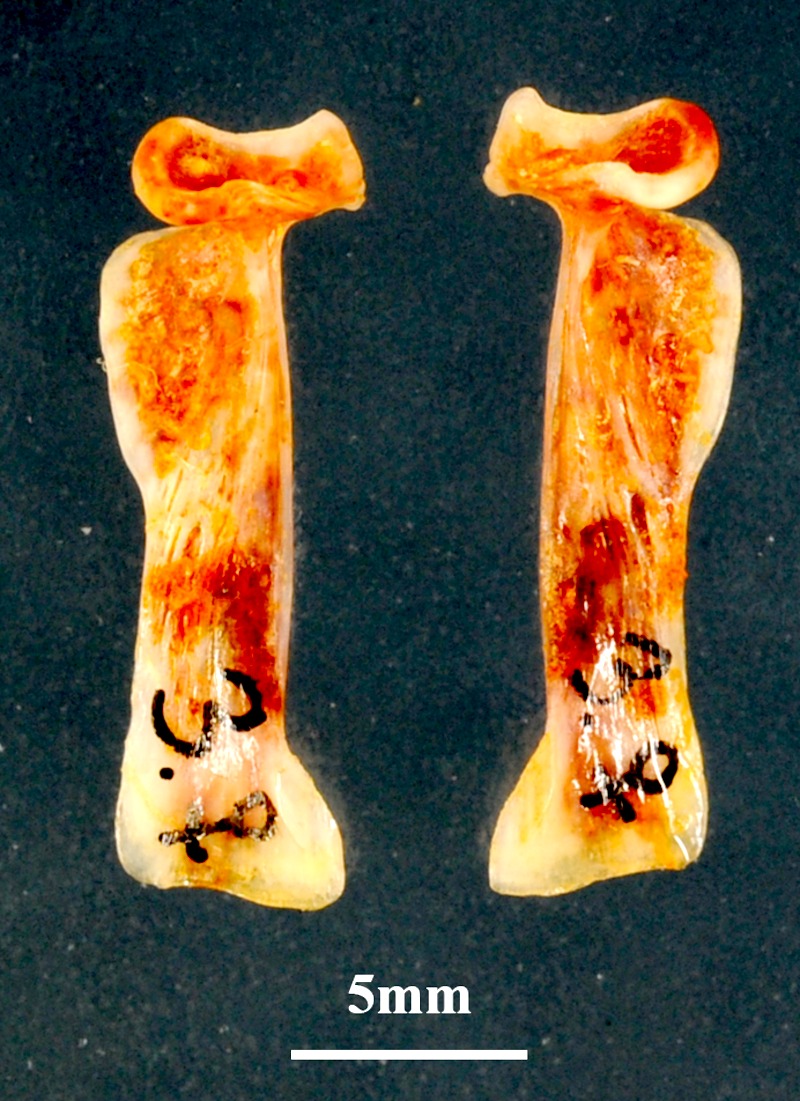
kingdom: Animalia
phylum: Chordata
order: Perciformes
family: Sparidae
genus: Dentex
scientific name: Dentex maroccanus
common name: Morocco dentex
